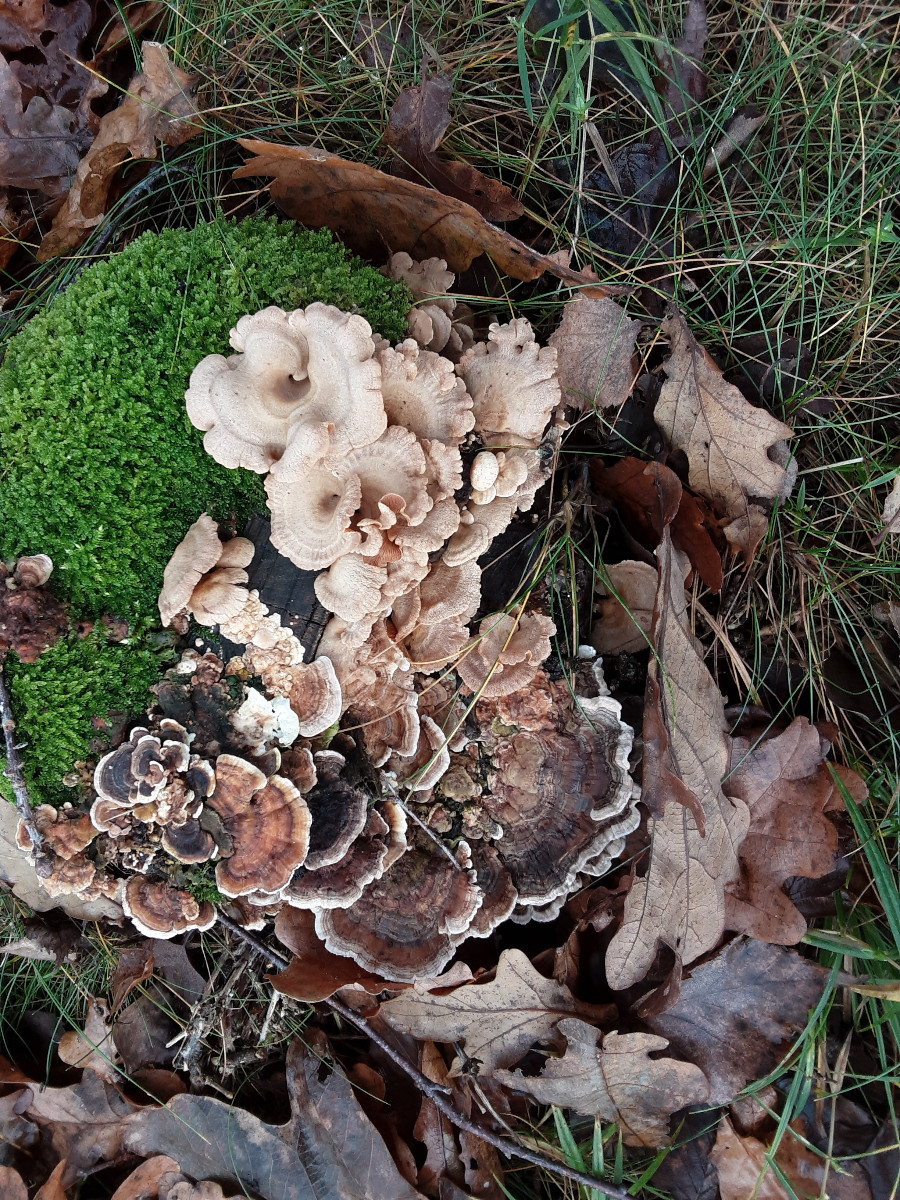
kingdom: Fungi
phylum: Basidiomycota
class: Agaricomycetes
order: Agaricales
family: Mycenaceae
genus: Panellus
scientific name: Panellus stipticus
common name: kliddet epaulethat
